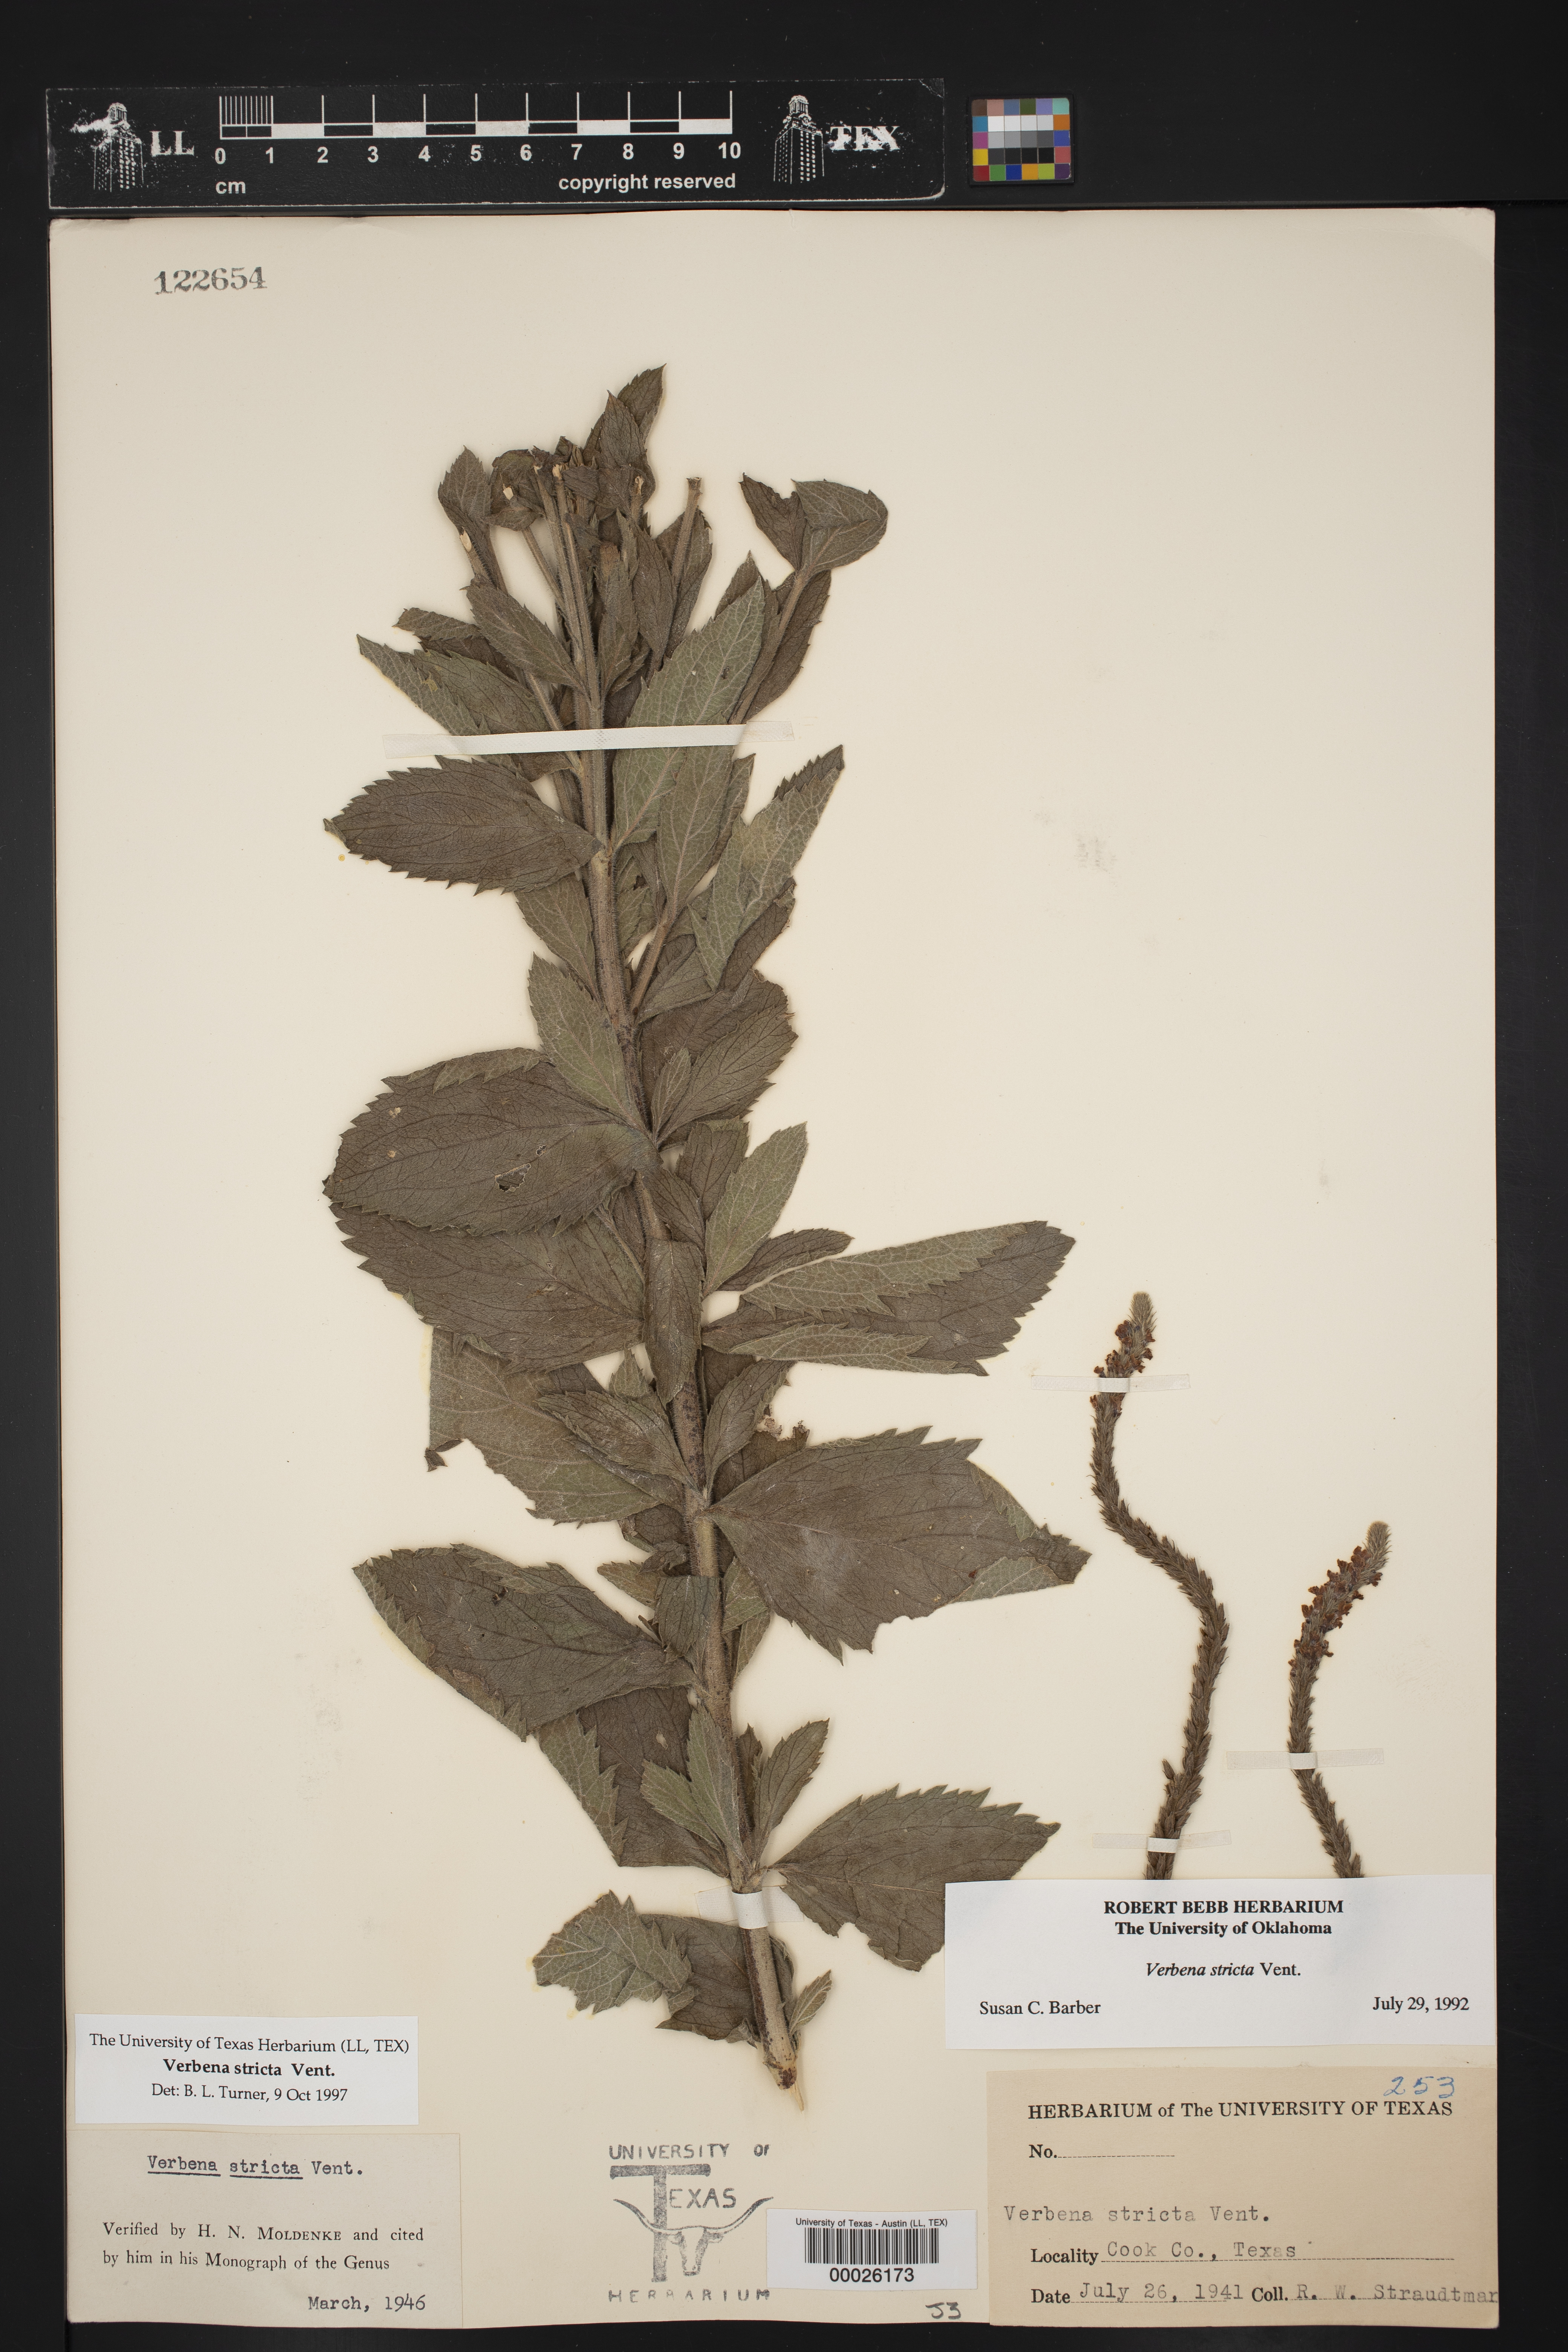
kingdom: Plantae
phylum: Tracheophyta
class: Magnoliopsida
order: Lamiales
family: Verbenaceae
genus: Verbena
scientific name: Verbena stricta
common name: Hoary vervain
